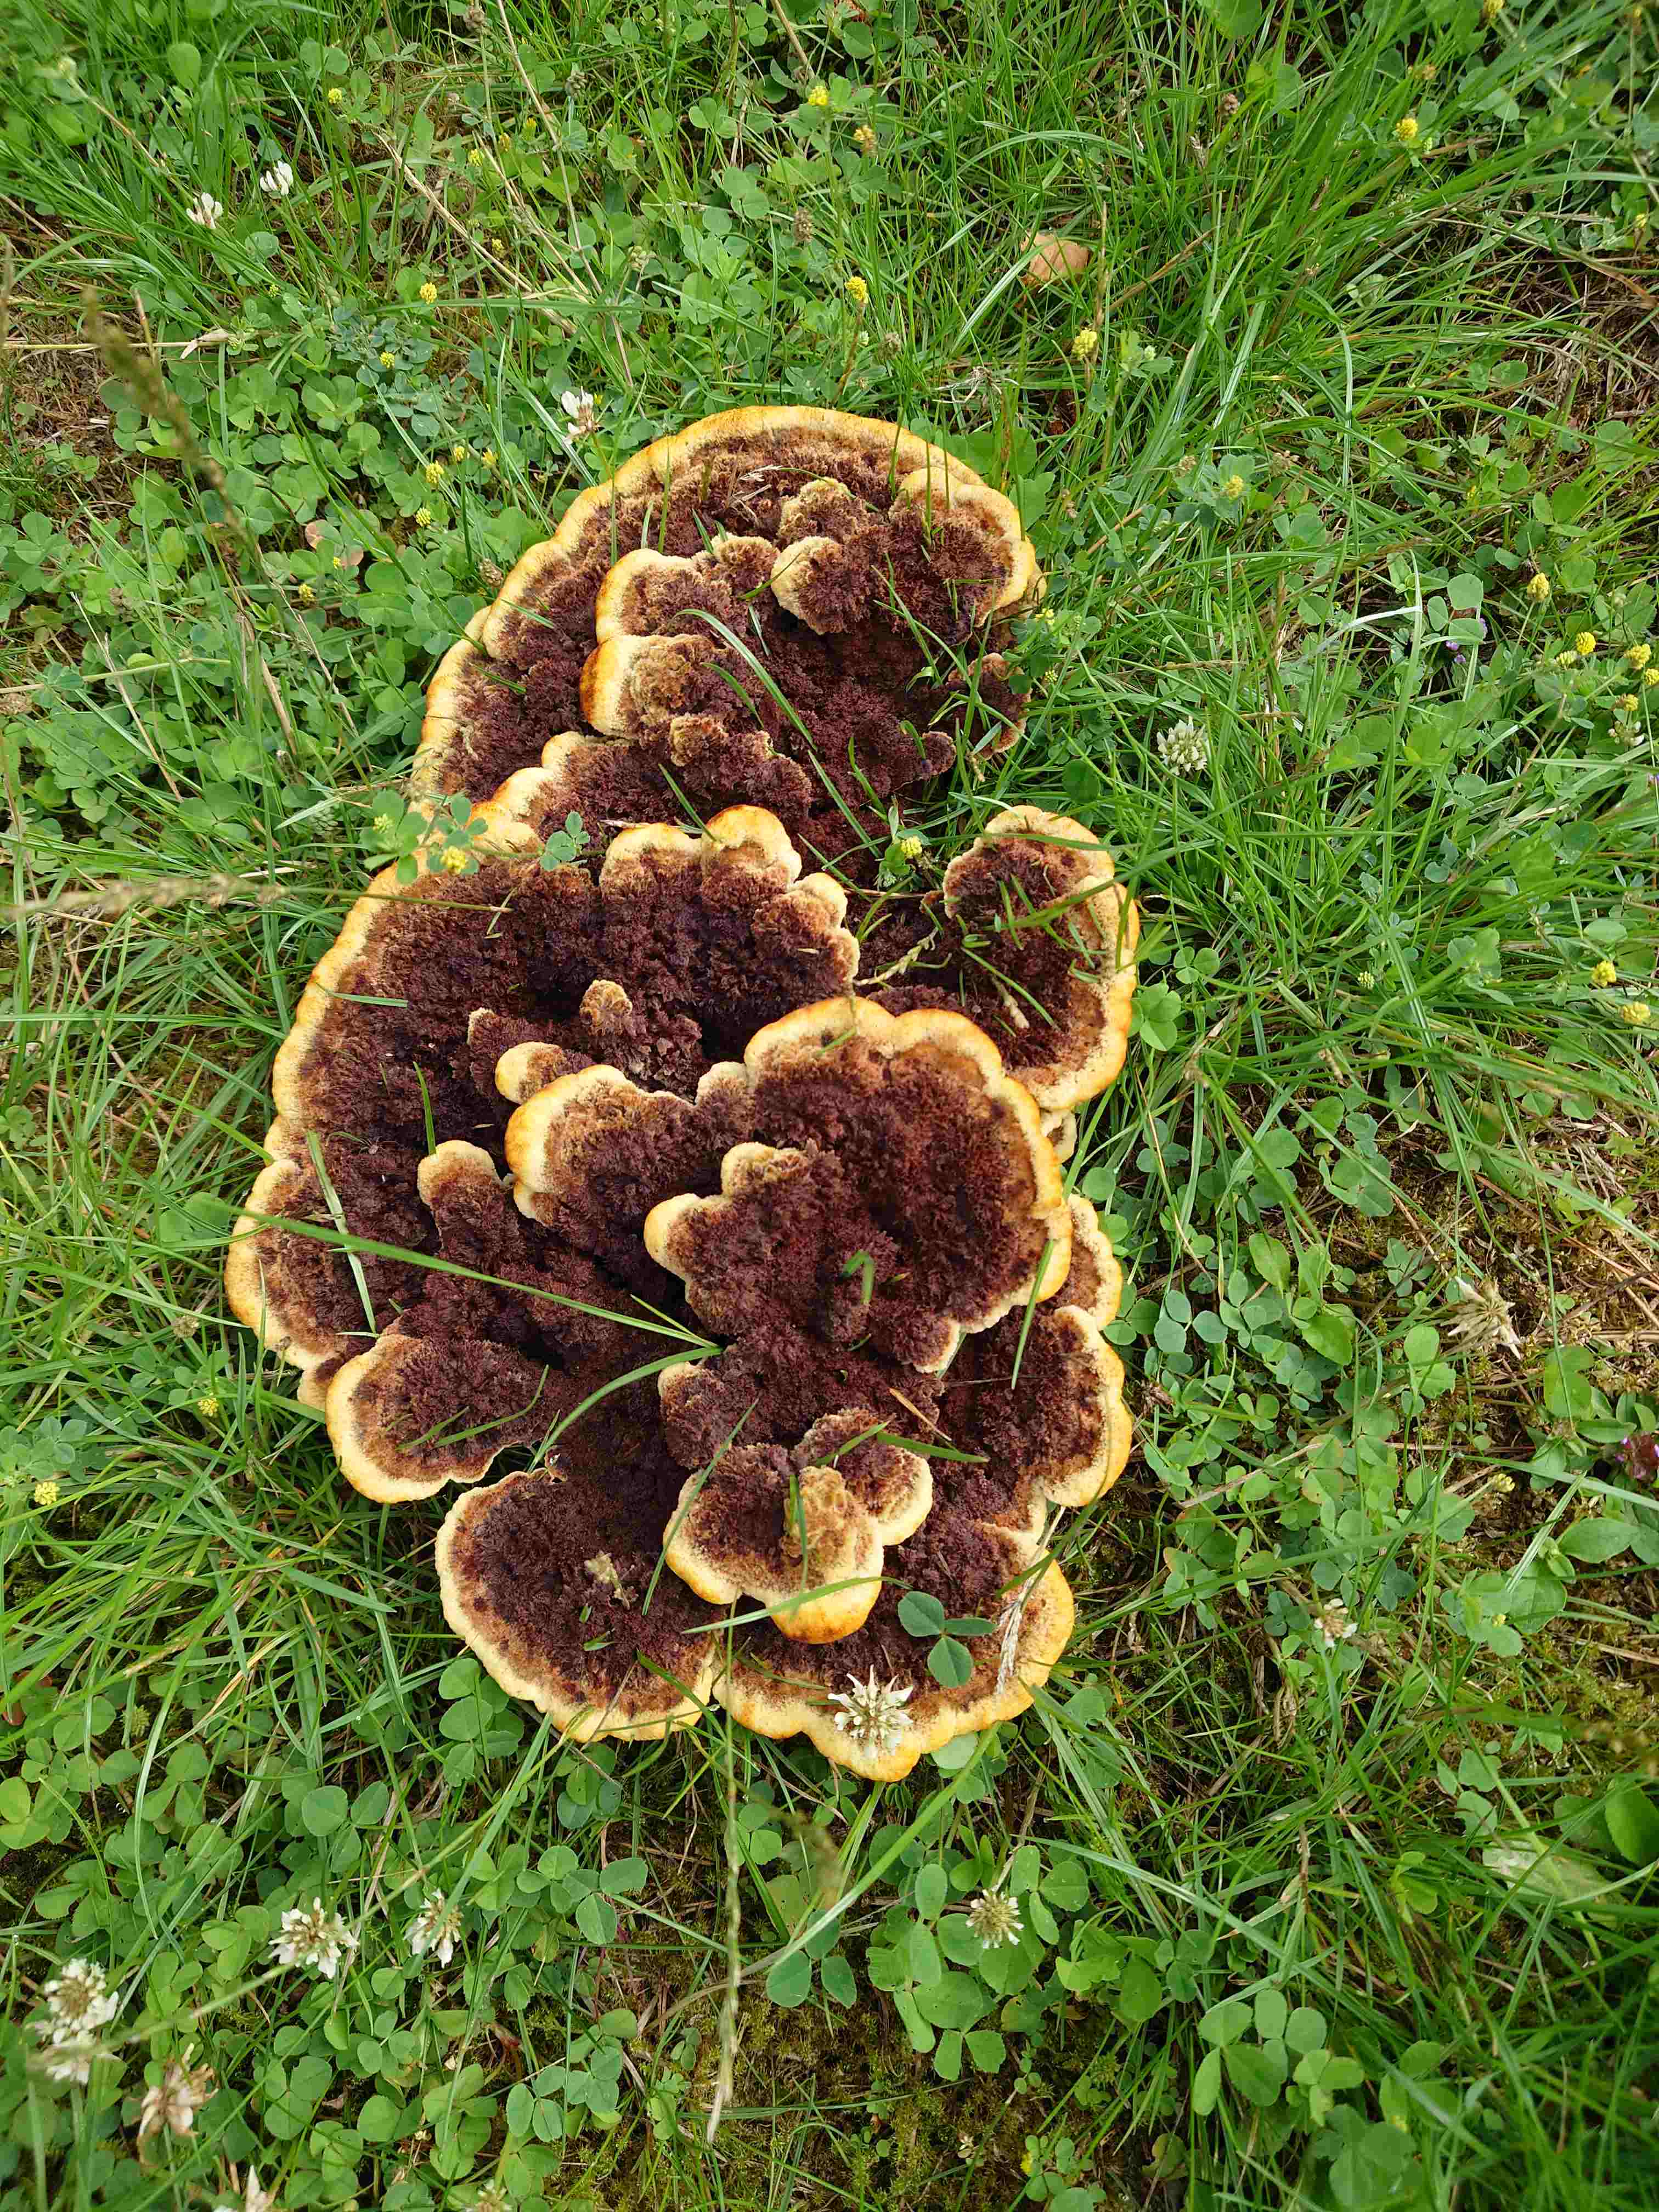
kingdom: Fungi
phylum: Basidiomycota
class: Agaricomycetes
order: Polyporales
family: Laetiporaceae
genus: Phaeolus
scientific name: Phaeolus schweinitzii
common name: brunporesvamp
